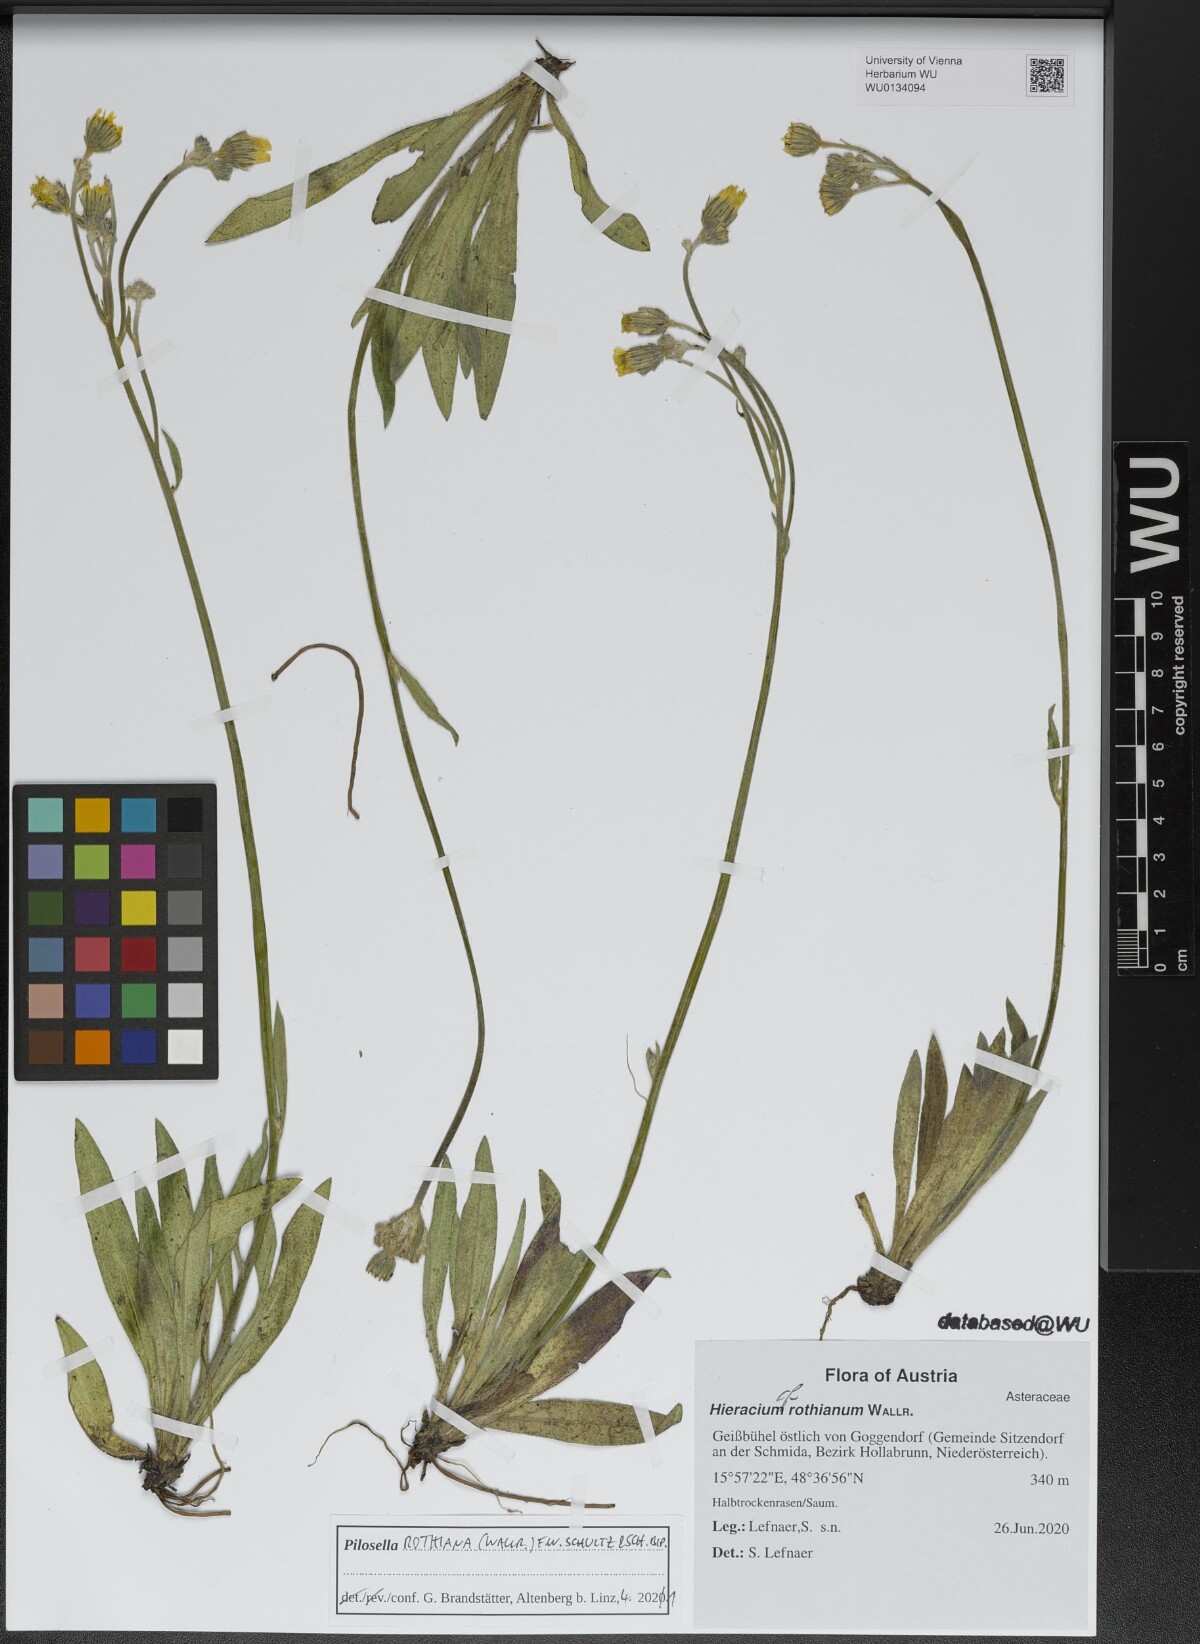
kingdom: Plantae
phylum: Tracheophyta
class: Magnoliopsida
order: Asterales
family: Asteraceae
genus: Pilosella
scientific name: Pilosella rothiana
